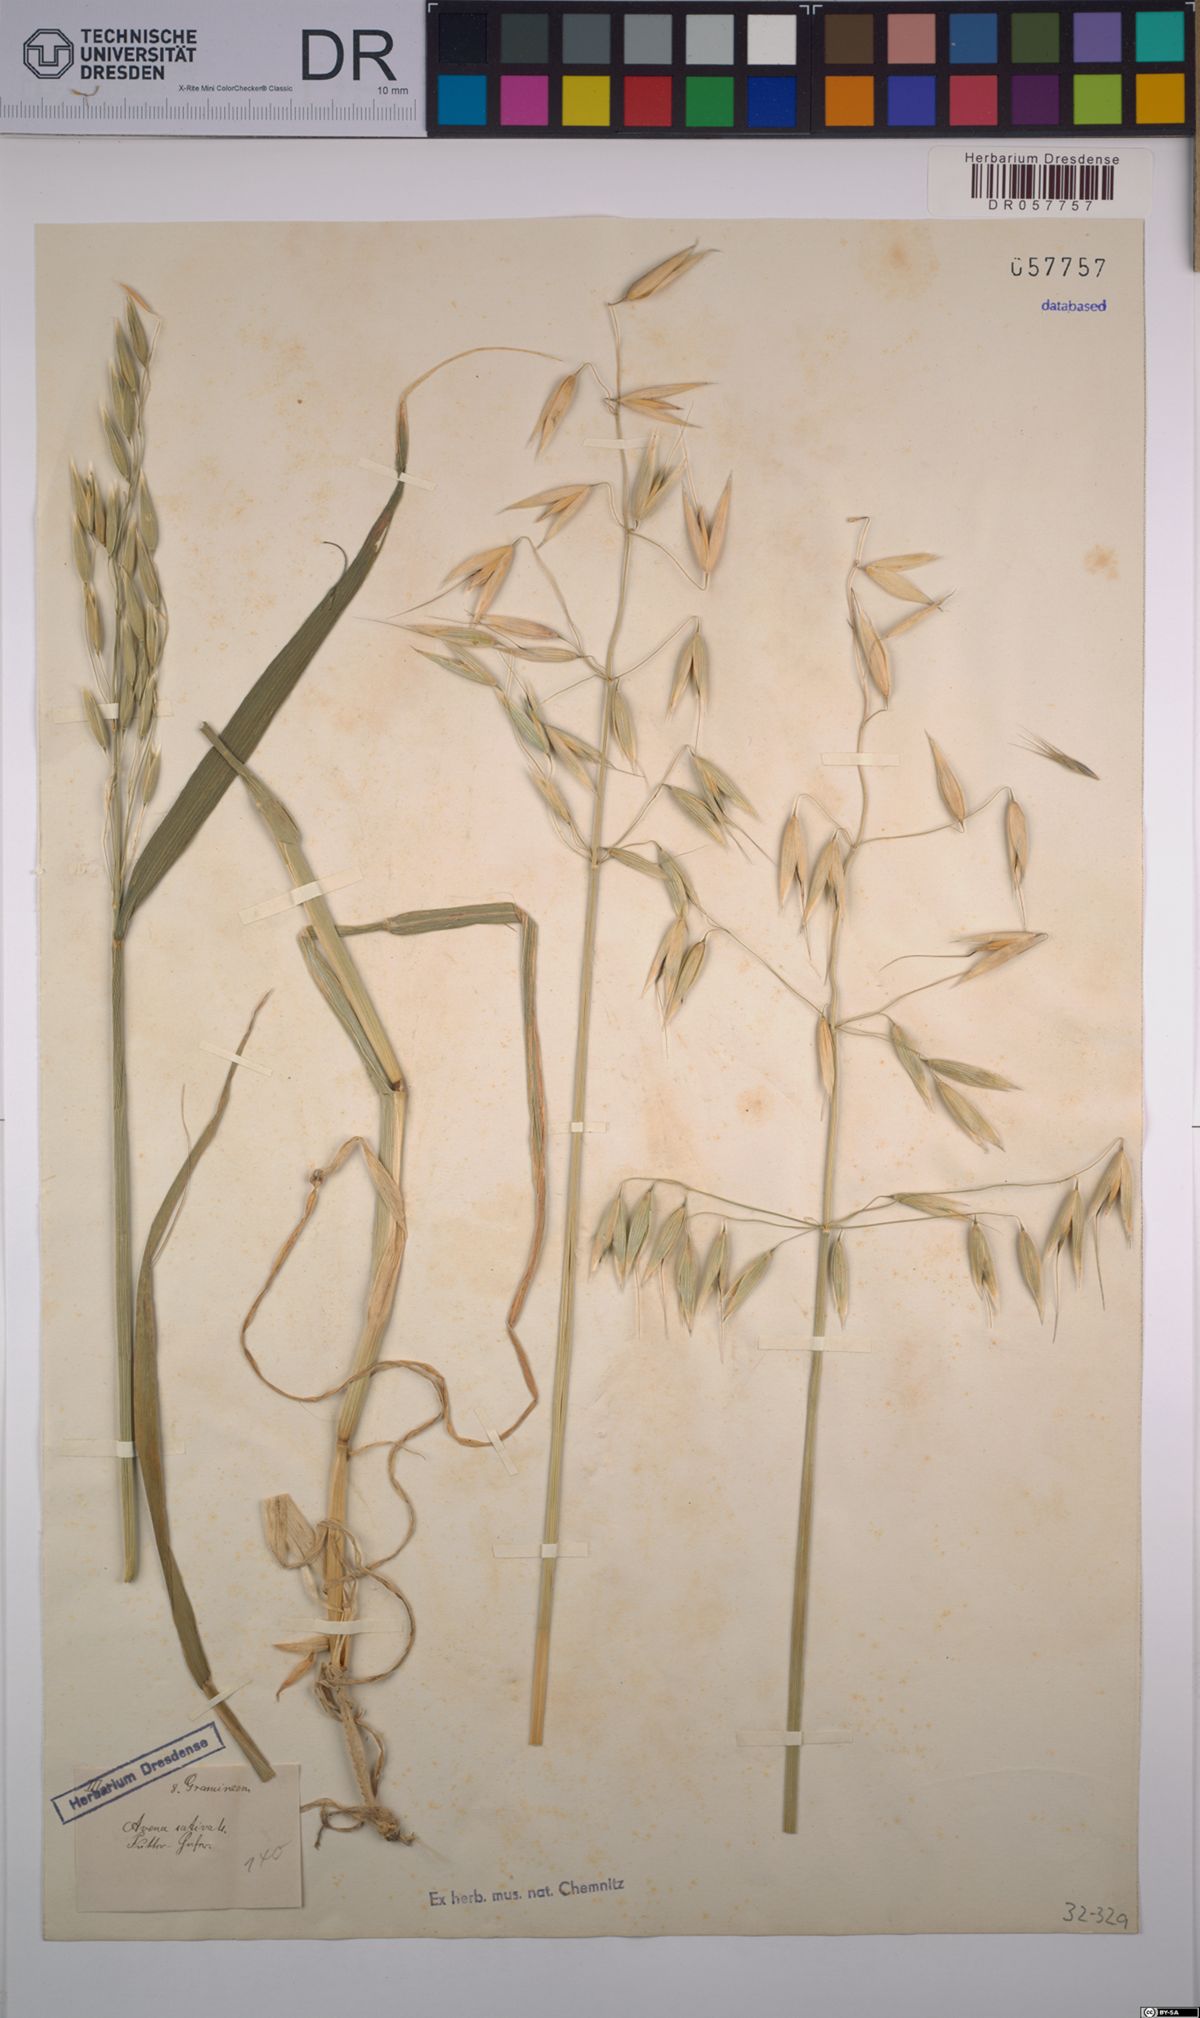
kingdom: Plantae
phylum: Tracheophyta
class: Liliopsida
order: Poales
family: Poaceae
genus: Avena
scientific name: Avena sativa
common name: Oat
